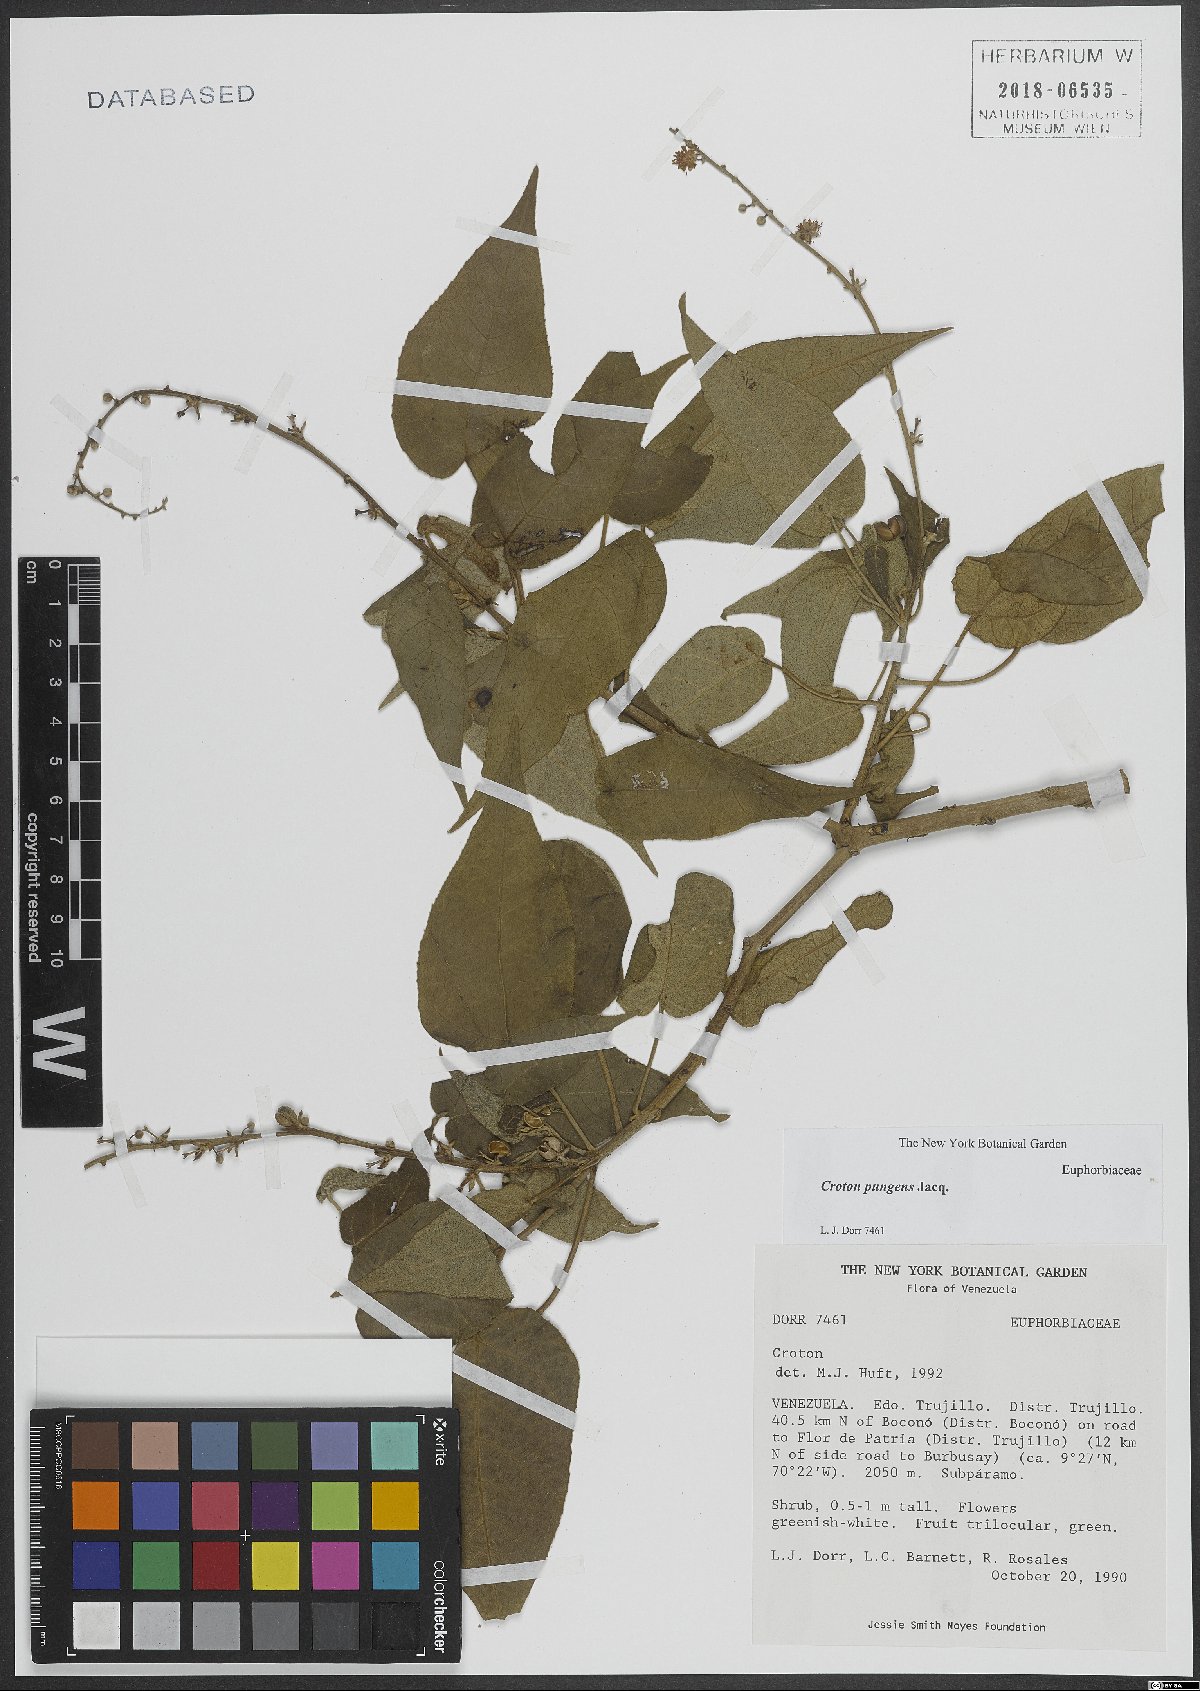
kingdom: Plantae
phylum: Tracheophyta
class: Magnoliopsida
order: Malpighiales
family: Euphorbiaceae
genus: Croton
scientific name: Croton pungens
